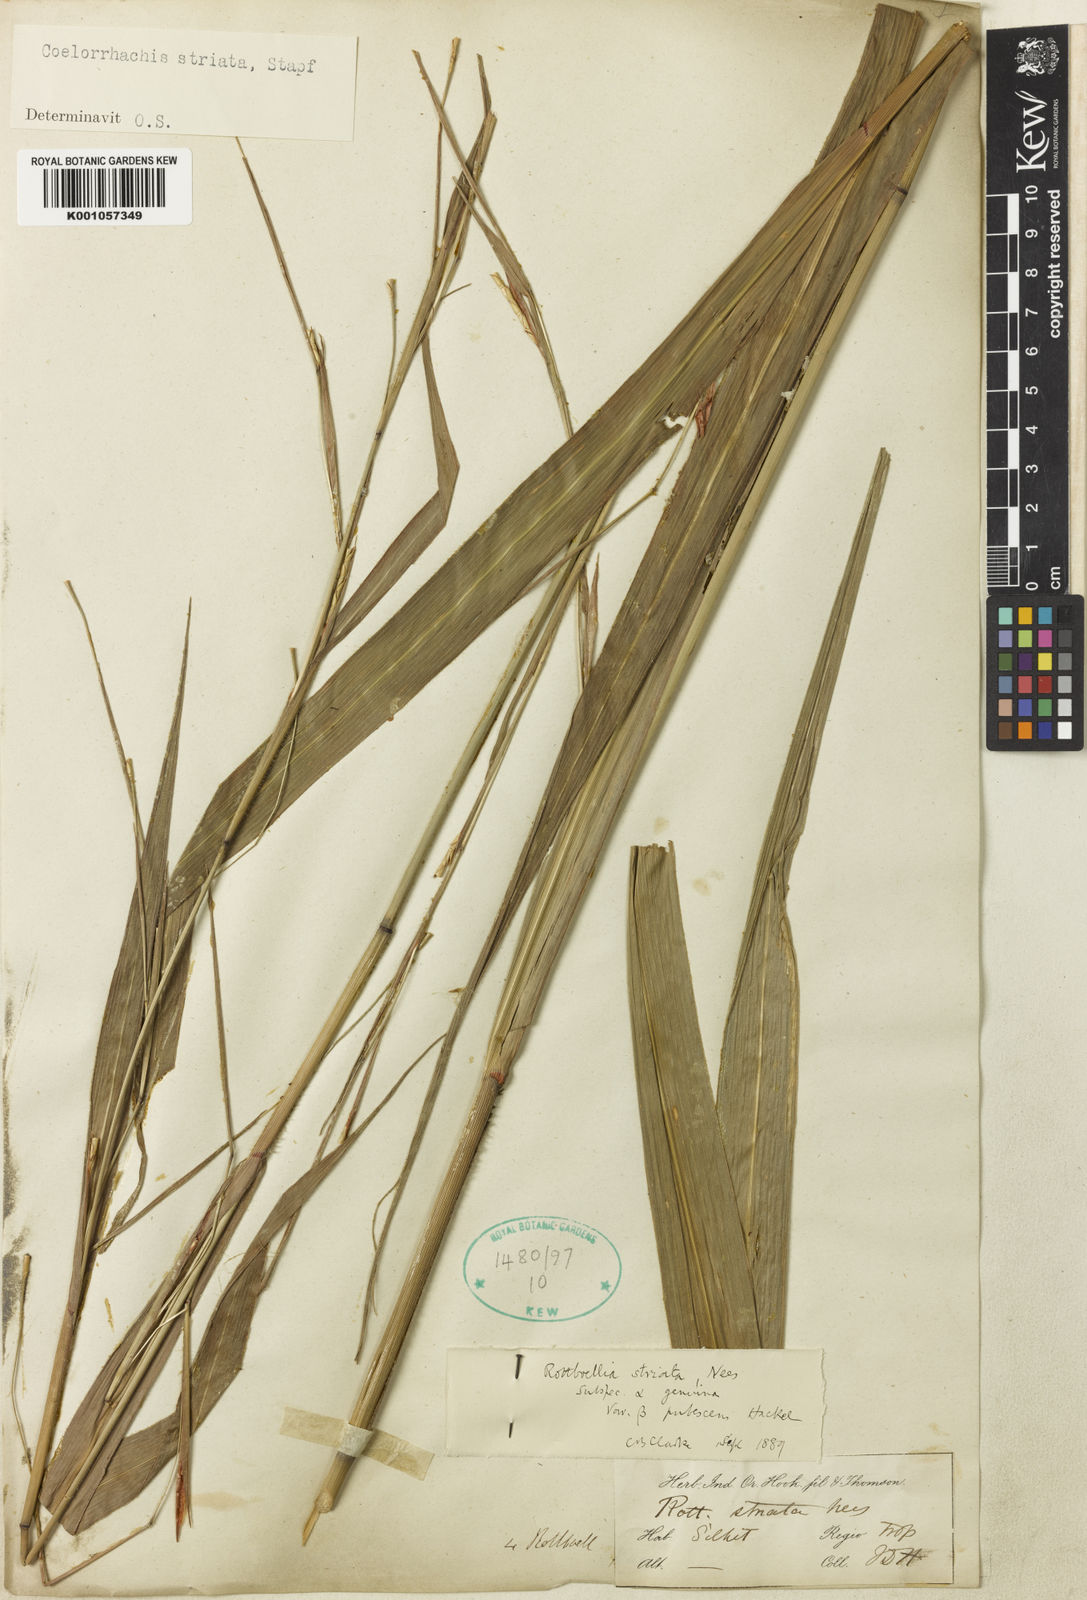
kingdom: Plantae
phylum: Tracheophyta
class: Liliopsida
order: Poales
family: Poaceae
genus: Rottboellia
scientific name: Rottboellia striata
